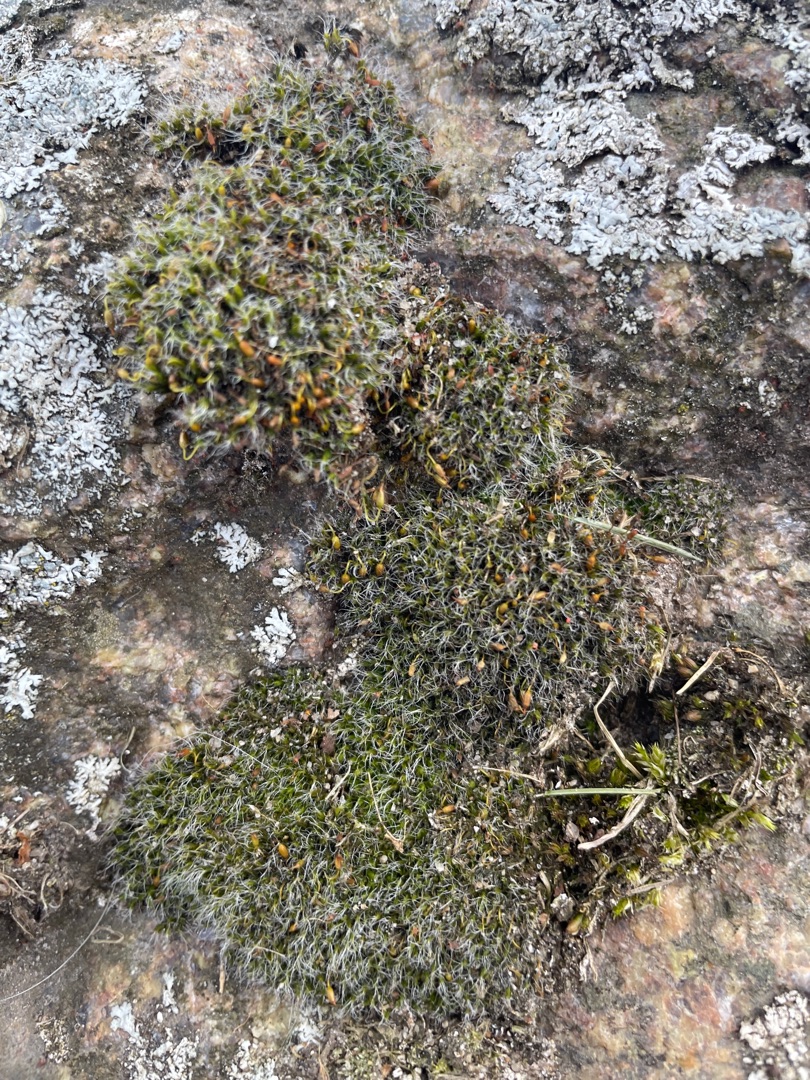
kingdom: Plantae
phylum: Bryophyta
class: Bryopsida
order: Grimmiales
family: Grimmiaceae
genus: Grimmia
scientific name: Grimmia pulvinata
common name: Pude-gråmos
